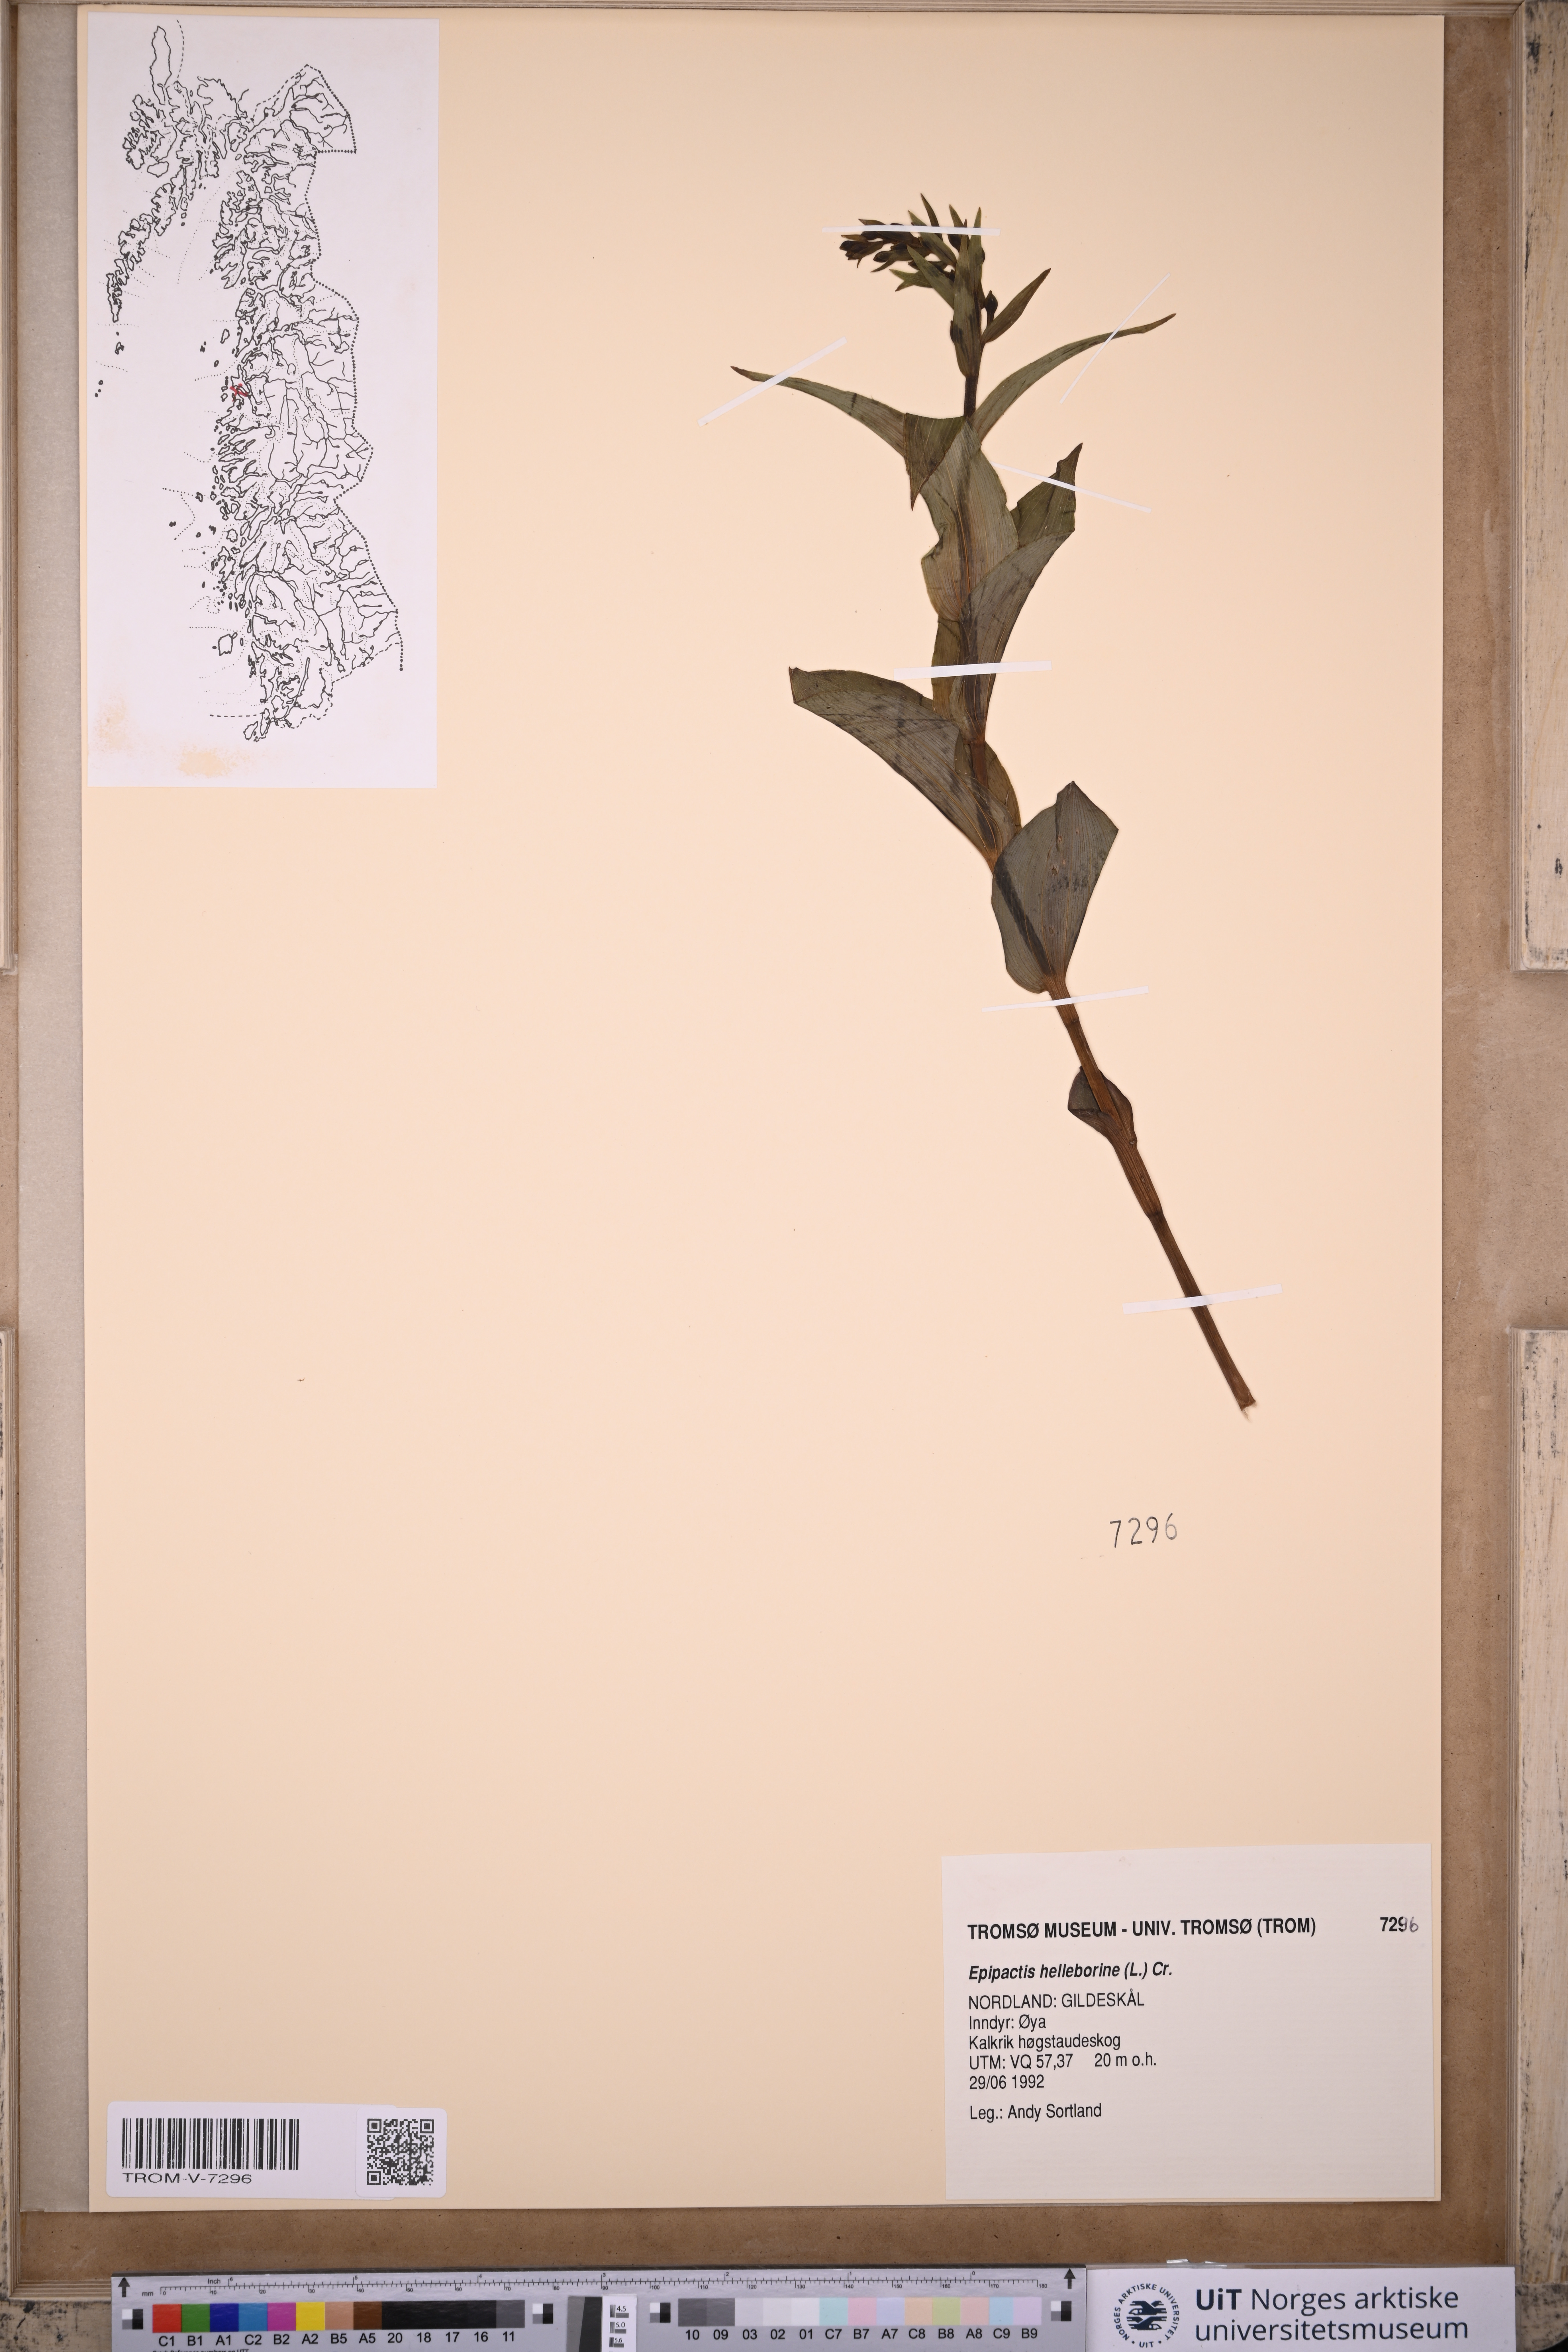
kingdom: Plantae
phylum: Tracheophyta
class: Liliopsida
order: Asparagales
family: Orchidaceae
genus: Epipactis
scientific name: Epipactis helleborine
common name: Broad-leaved helleborine
